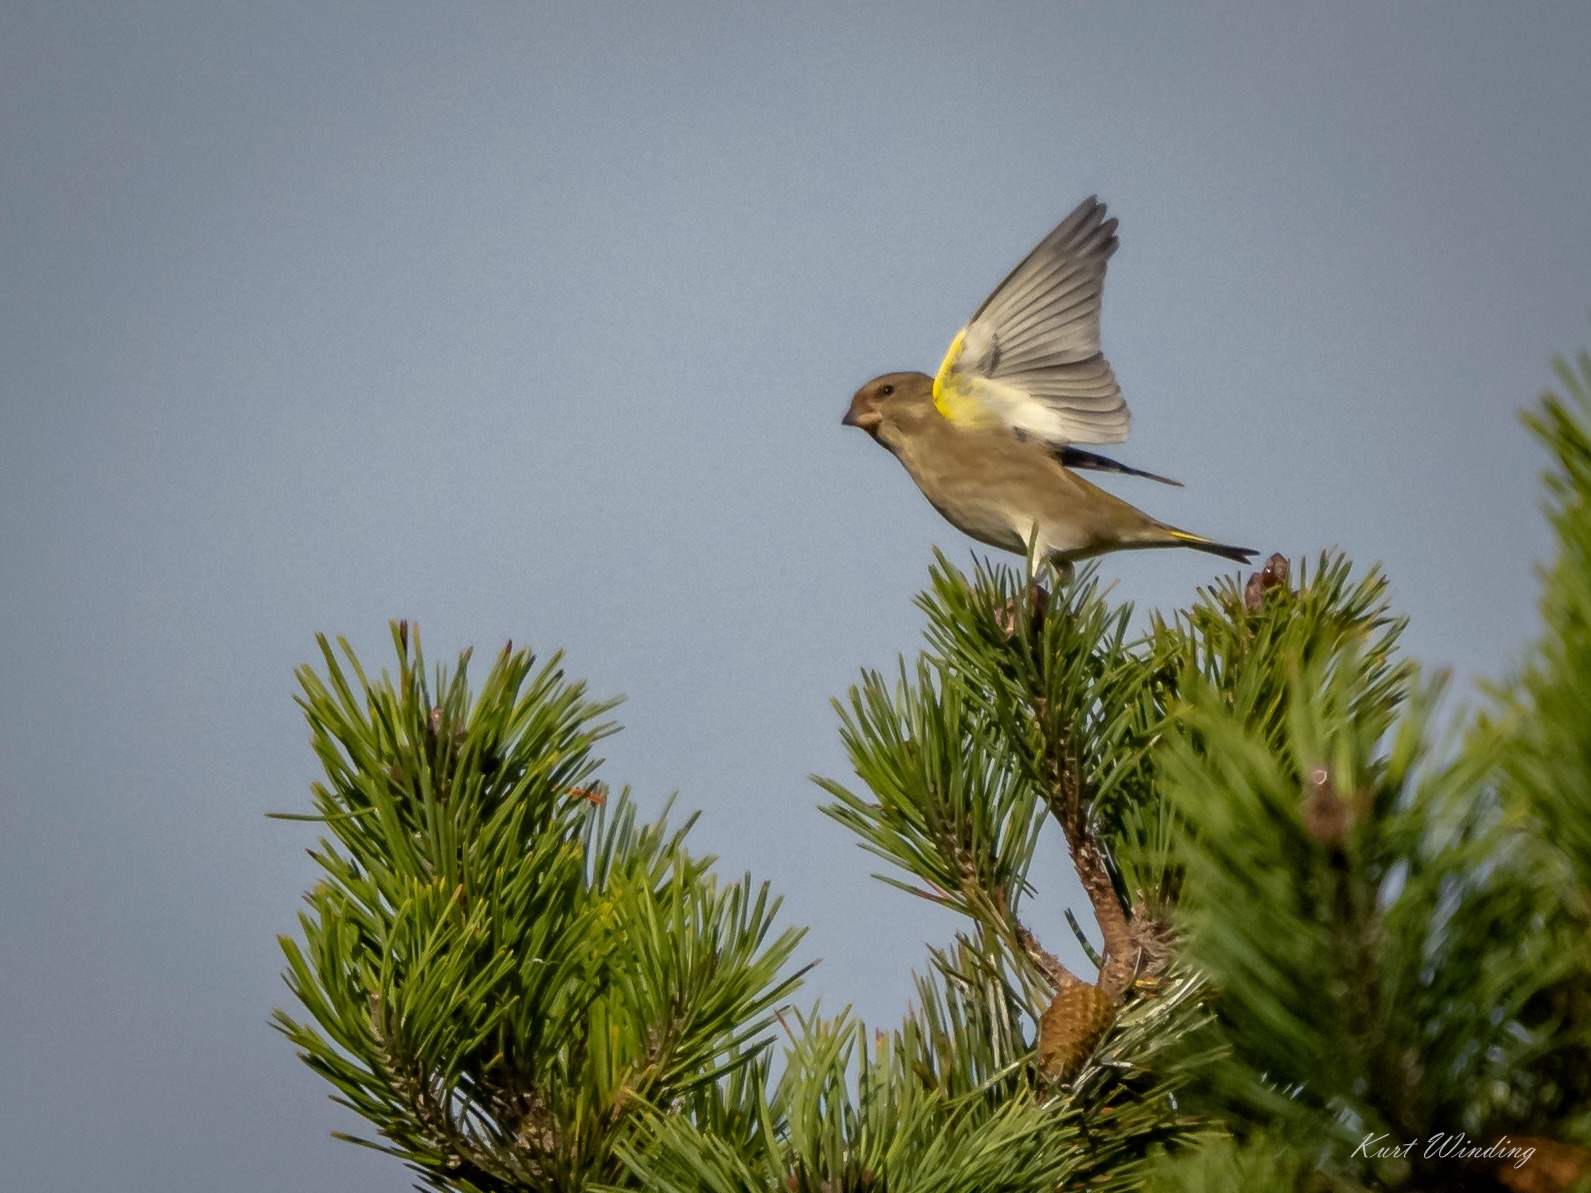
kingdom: Plantae
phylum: Tracheophyta
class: Liliopsida
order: Poales
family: Poaceae
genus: Chloris
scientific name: Chloris chloris
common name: Grønirisk
